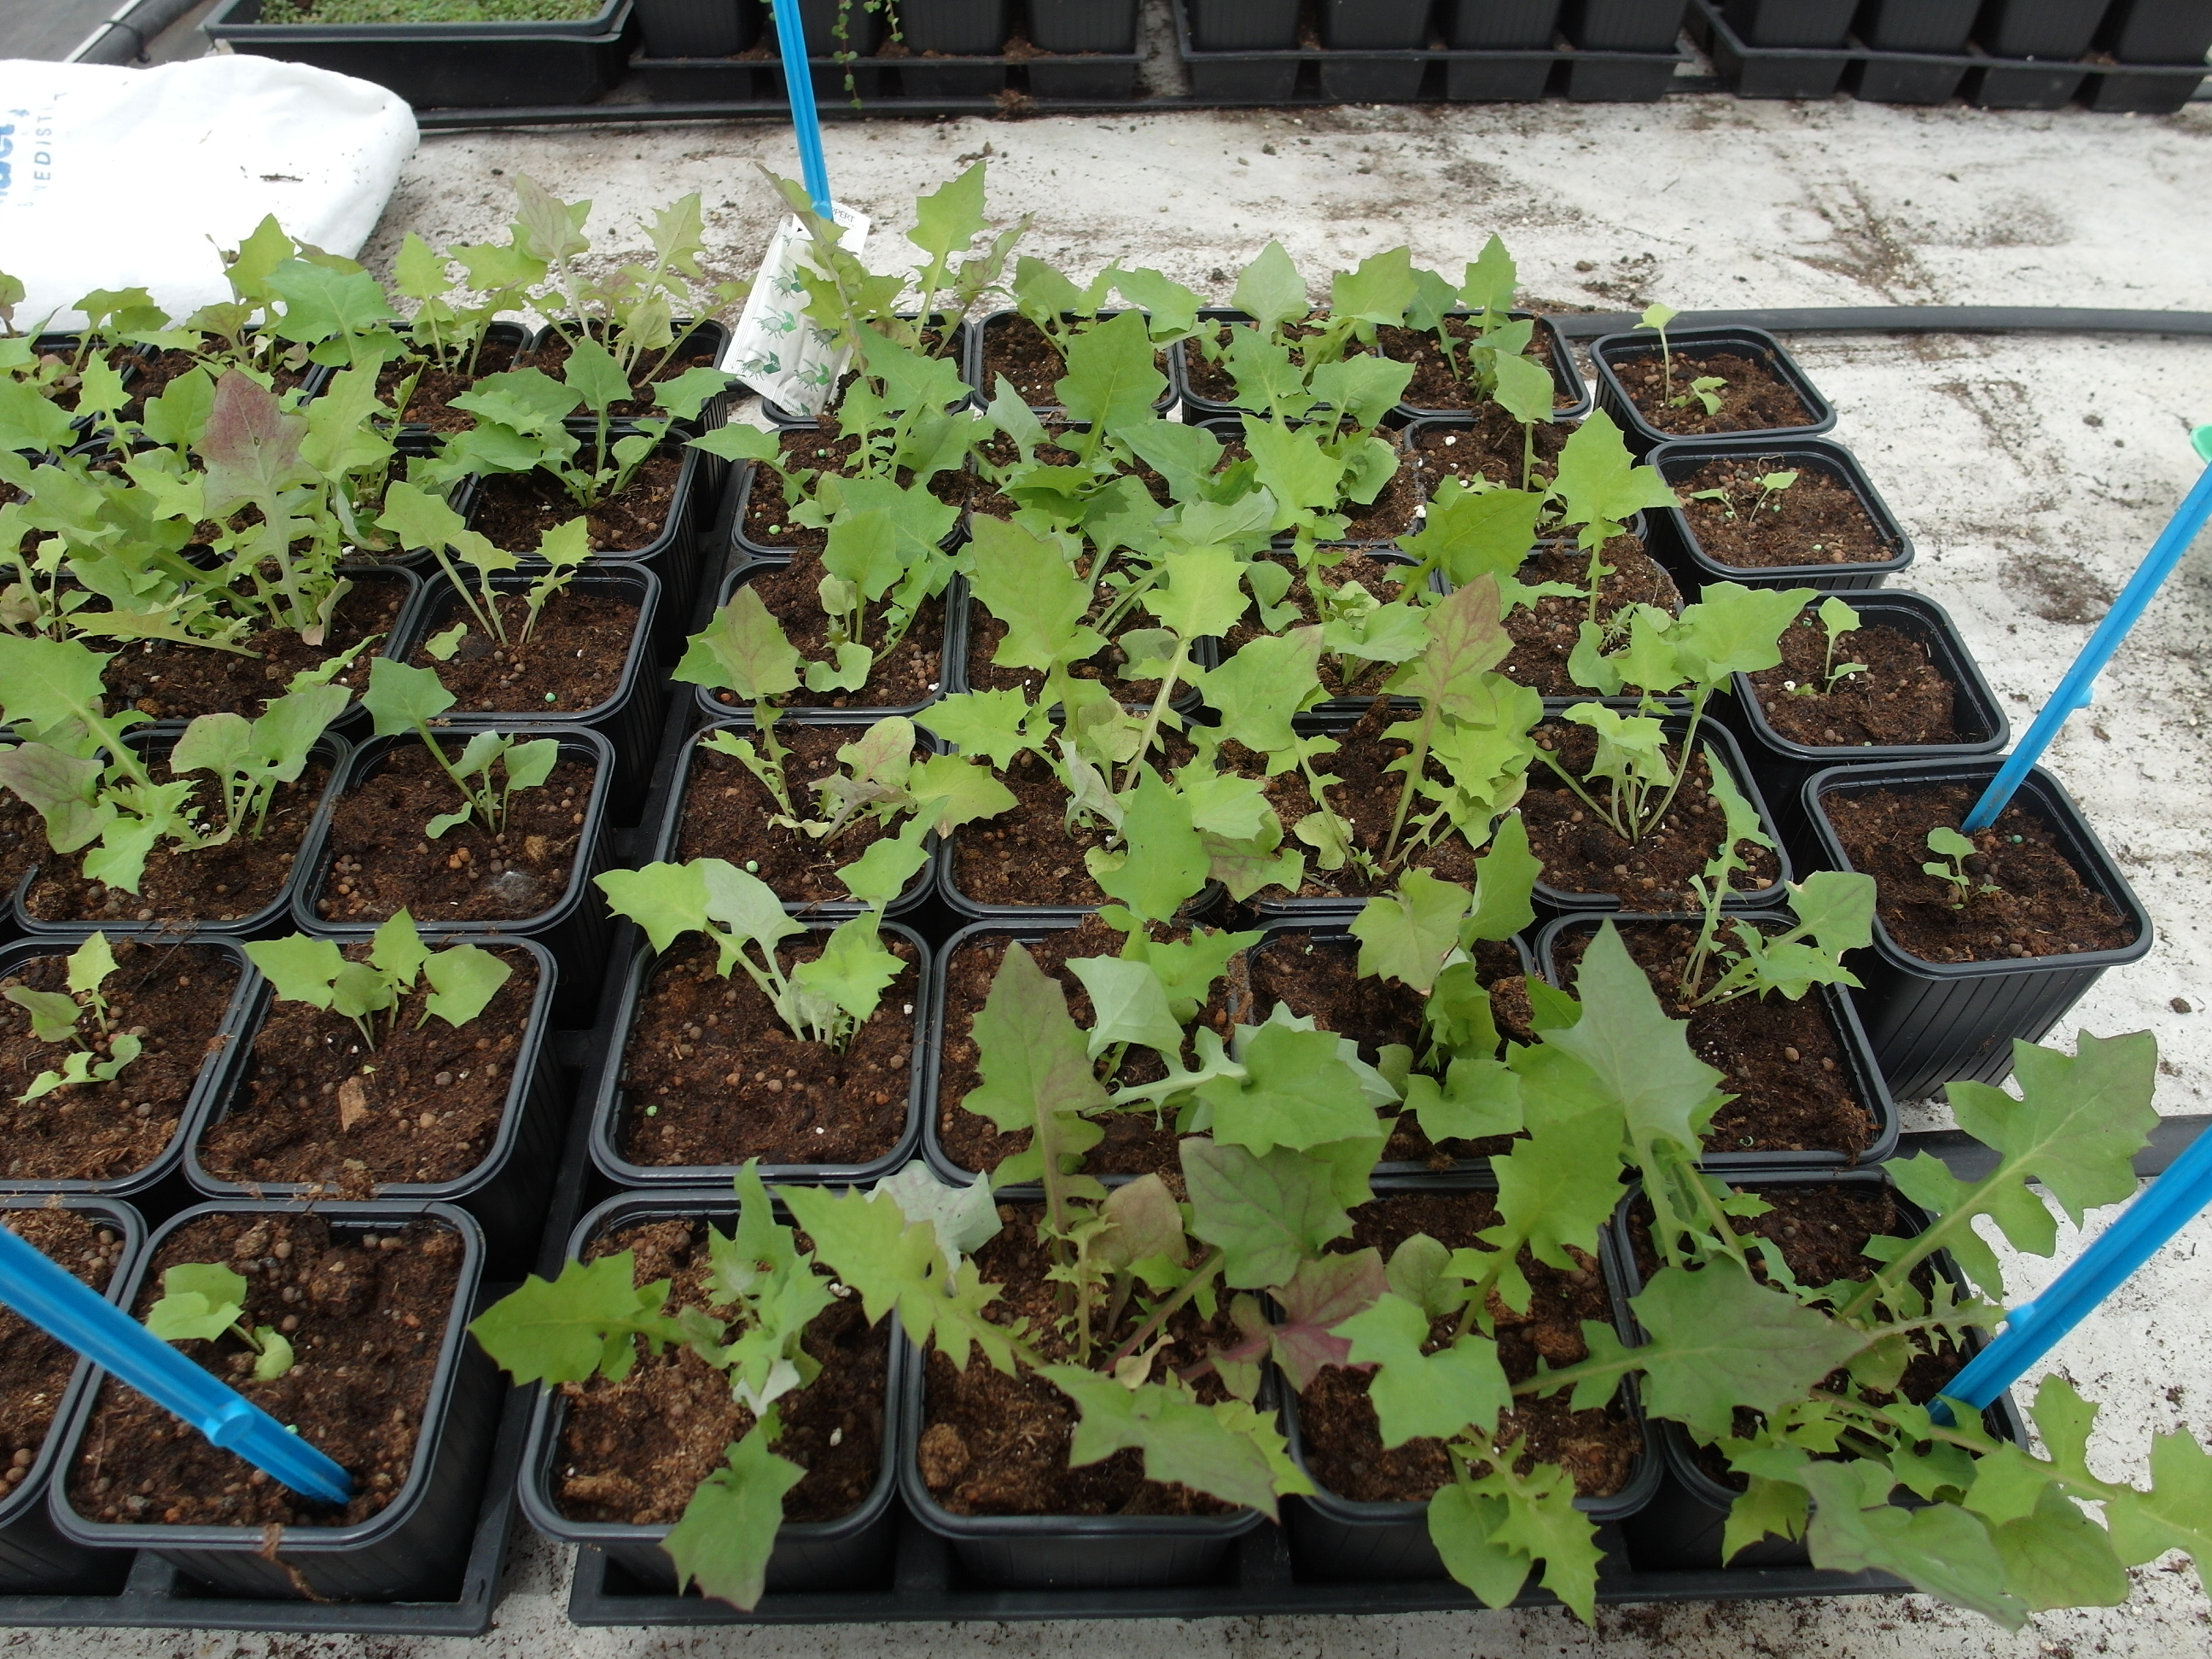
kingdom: Plantae
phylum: Tracheophyta
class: Magnoliopsida
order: Asterales
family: Asteraceae
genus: Mycelis
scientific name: Mycelis muralis
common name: Wall lettuce
